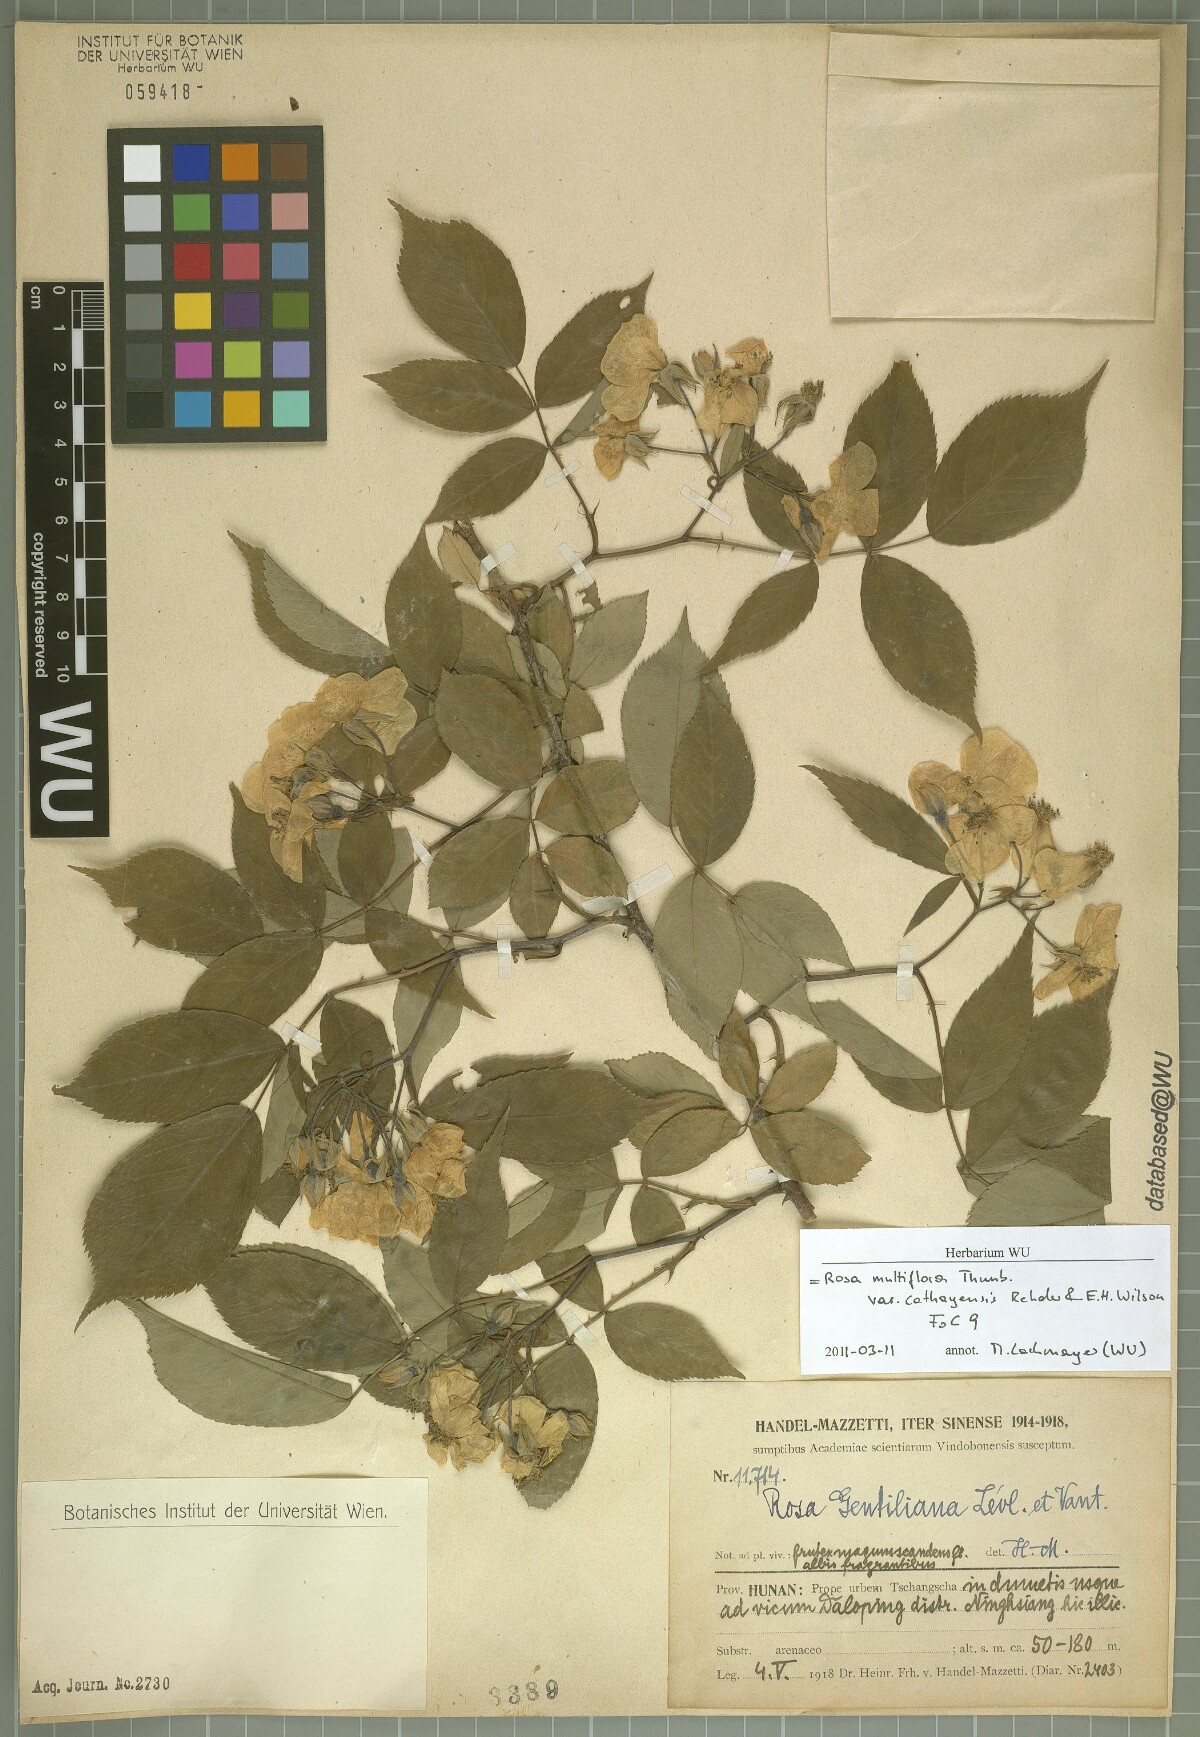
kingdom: Plantae
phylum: Tracheophyta
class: Magnoliopsida
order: Rosales
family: Rosaceae
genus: Rosa
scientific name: Rosa multiflora
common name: Multiflora rose
